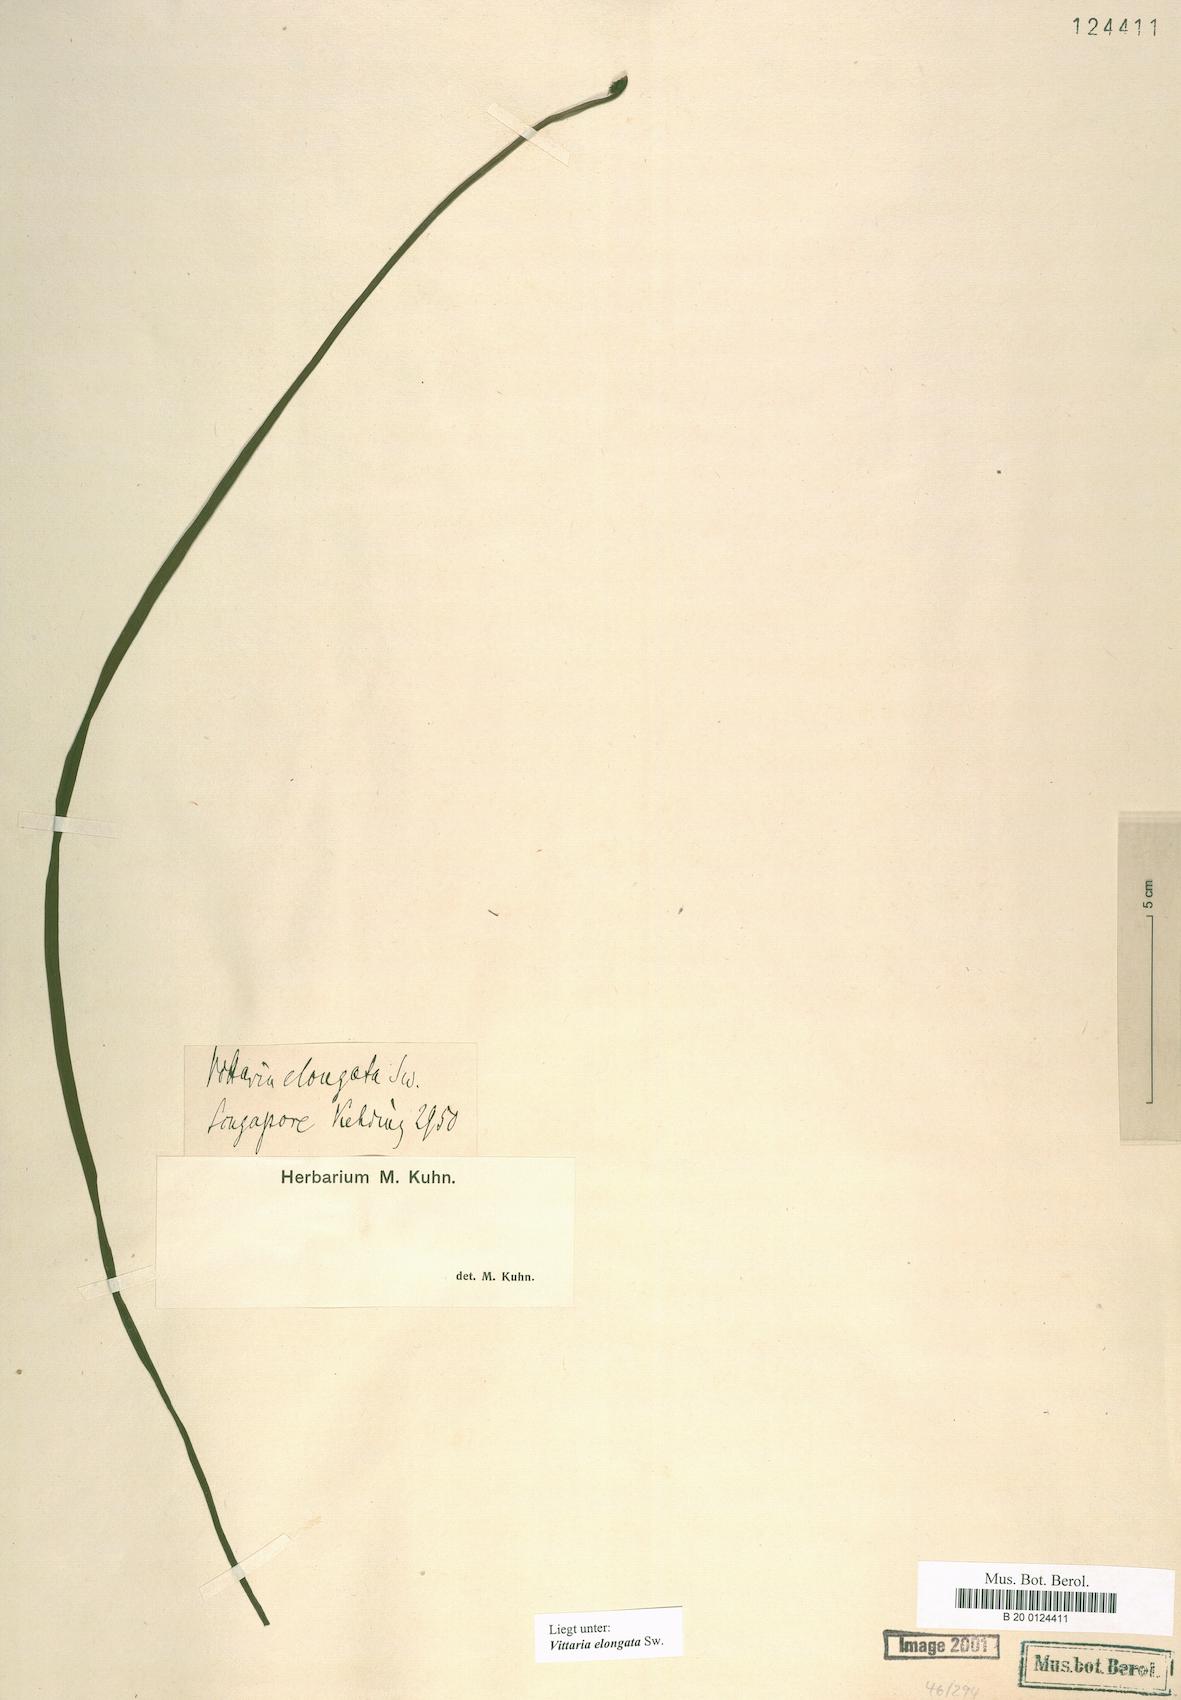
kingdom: Plantae
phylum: Tracheophyta
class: Polypodiopsida
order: Polypodiales
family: Pteridaceae
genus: Haplopteris
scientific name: Haplopteris elongata
